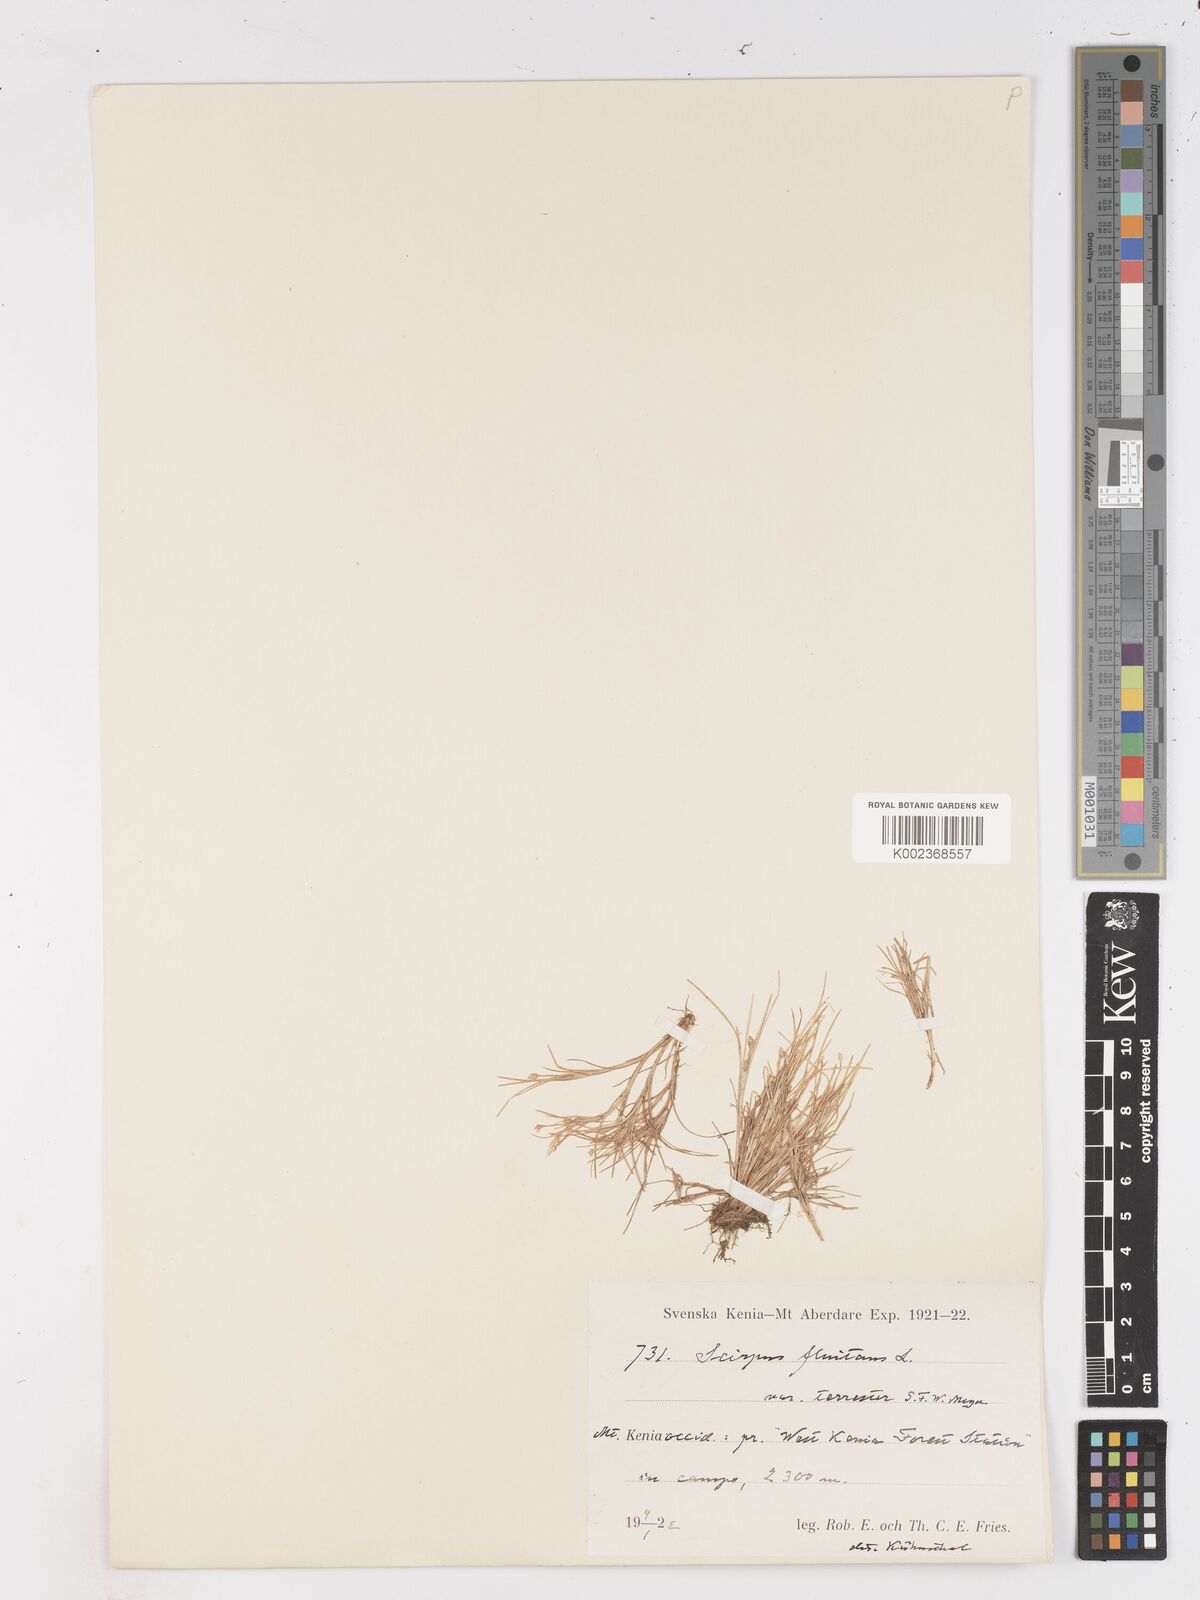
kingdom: Plantae
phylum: Tracheophyta
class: Liliopsida
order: Poales
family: Cyperaceae
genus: Isolepis
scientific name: Isolepis fluitans
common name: Floating club-rush
